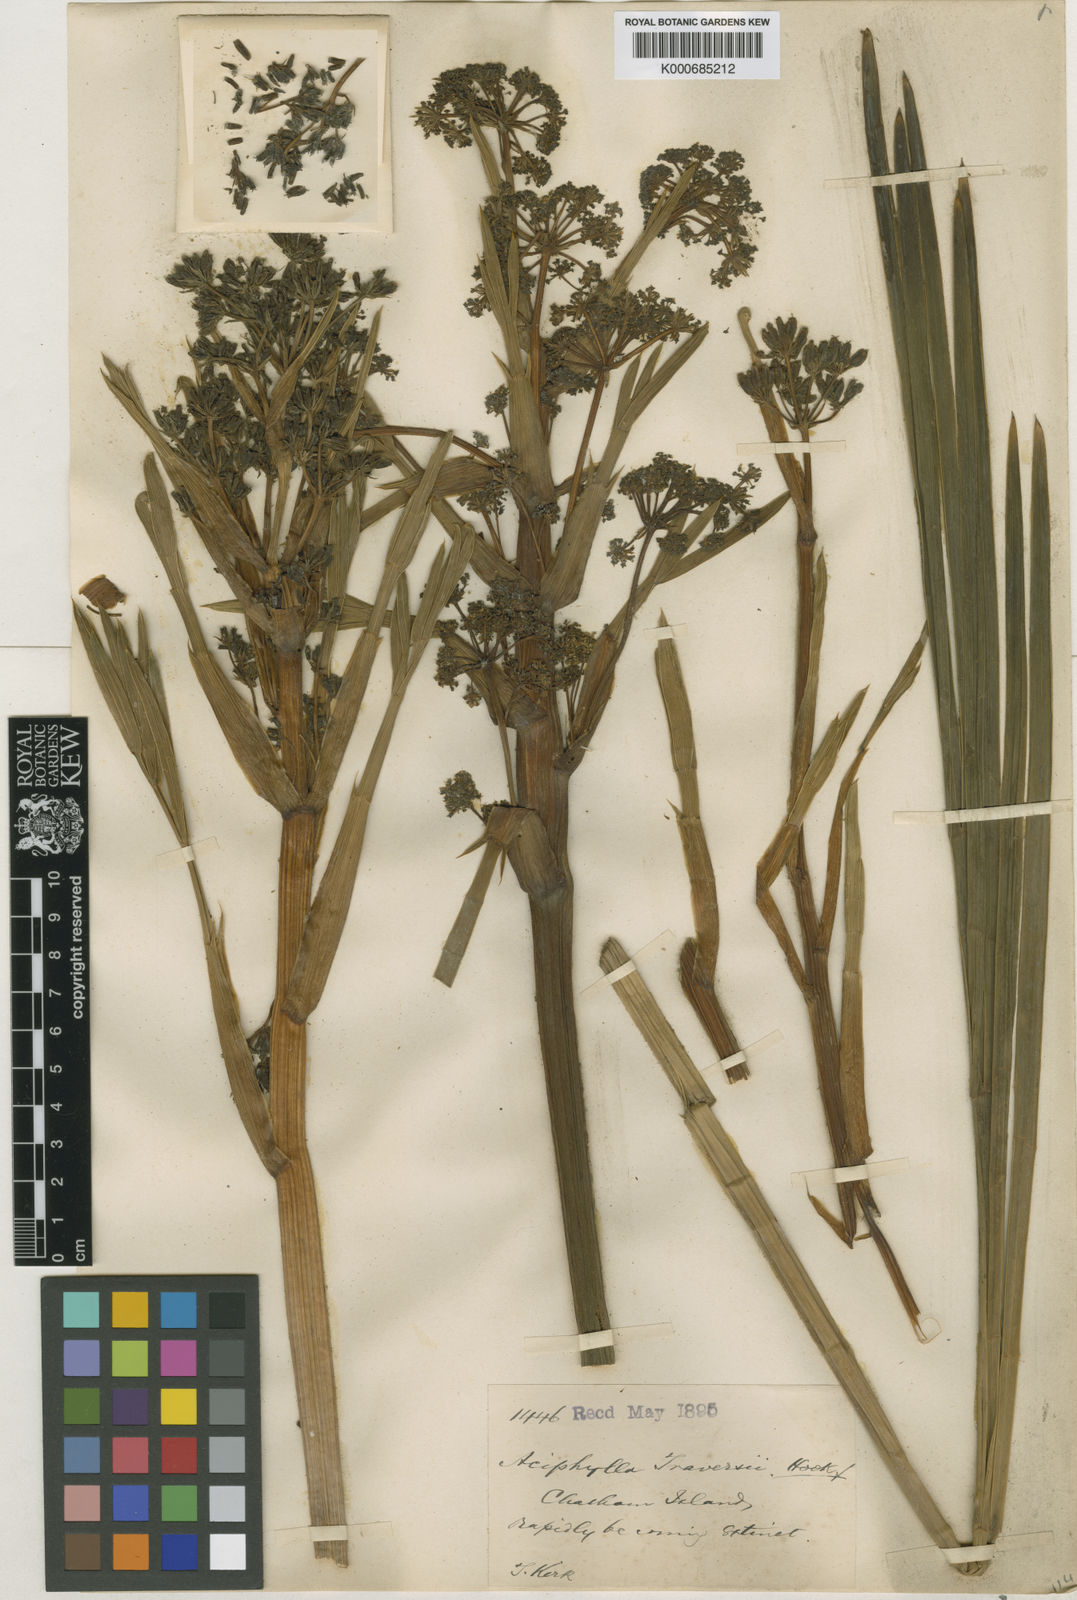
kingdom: Plantae
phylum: Tracheophyta
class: Magnoliopsida
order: Apiales
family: Apiaceae
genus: Aciphylla
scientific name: Aciphylla traversii
